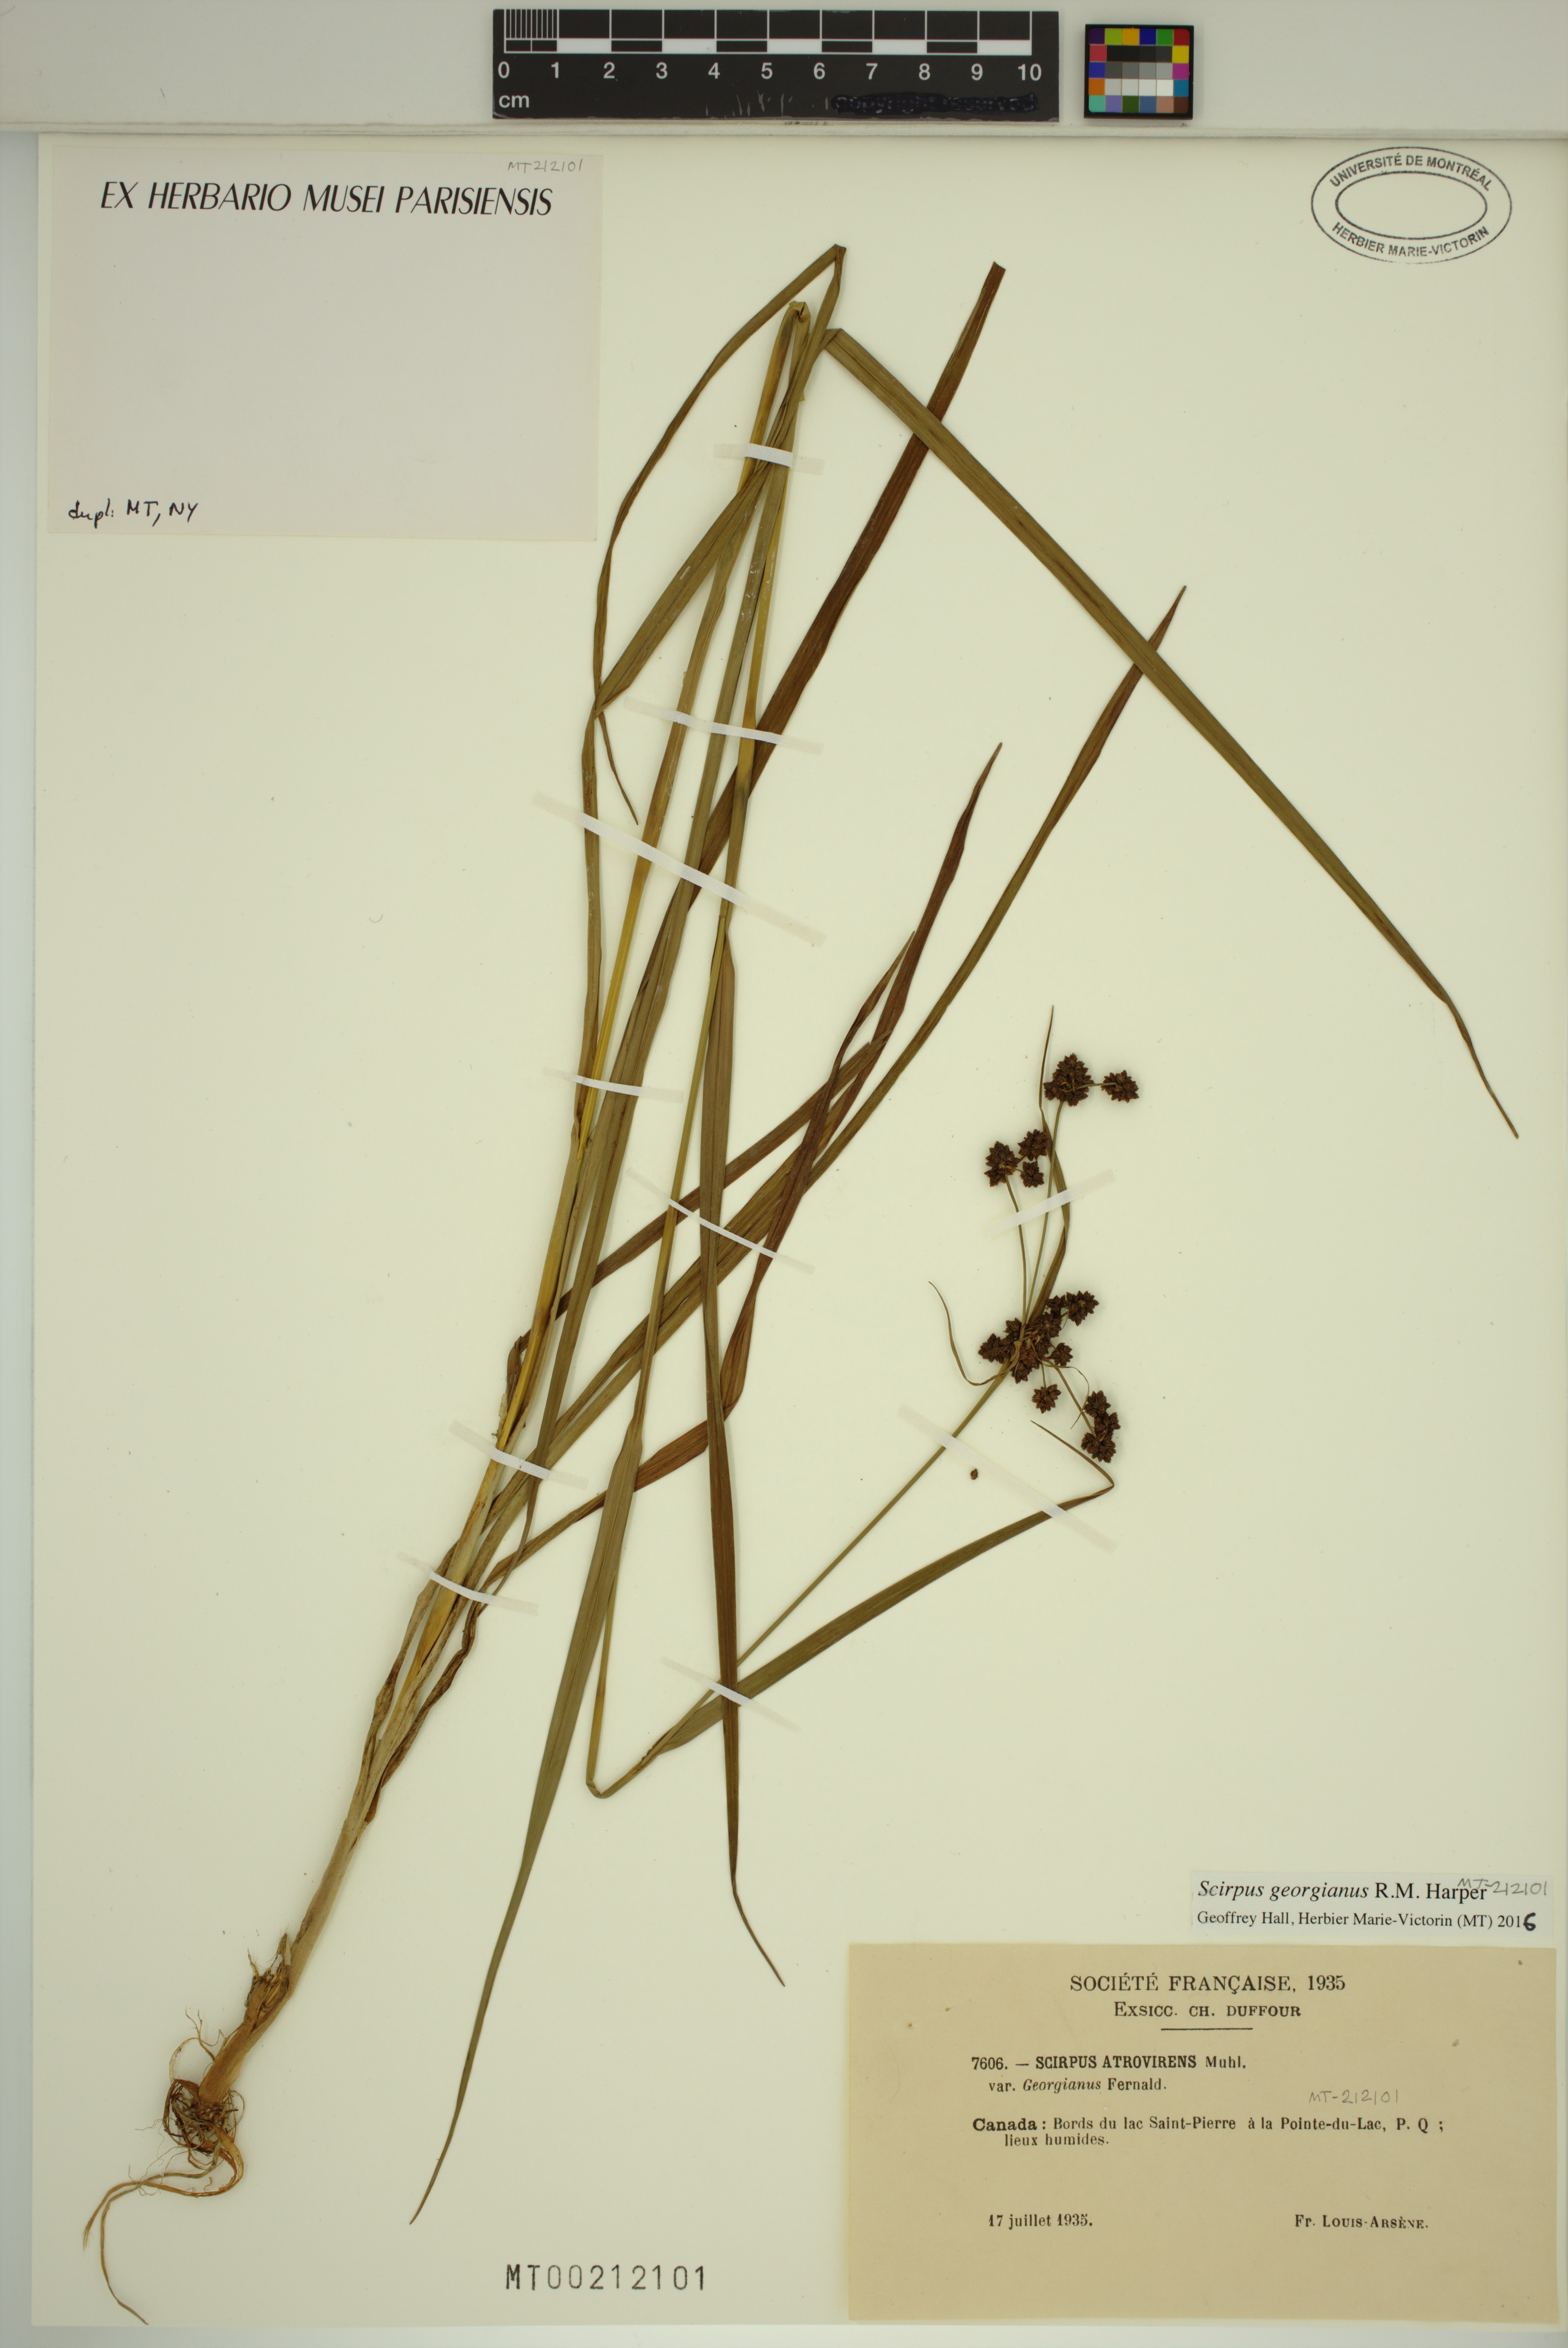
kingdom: Plantae
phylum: Tracheophyta
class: Liliopsida
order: Poales
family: Cyperaceae
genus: Scirpus
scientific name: Scirpus hattorianus
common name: Early dark-green bulrush
